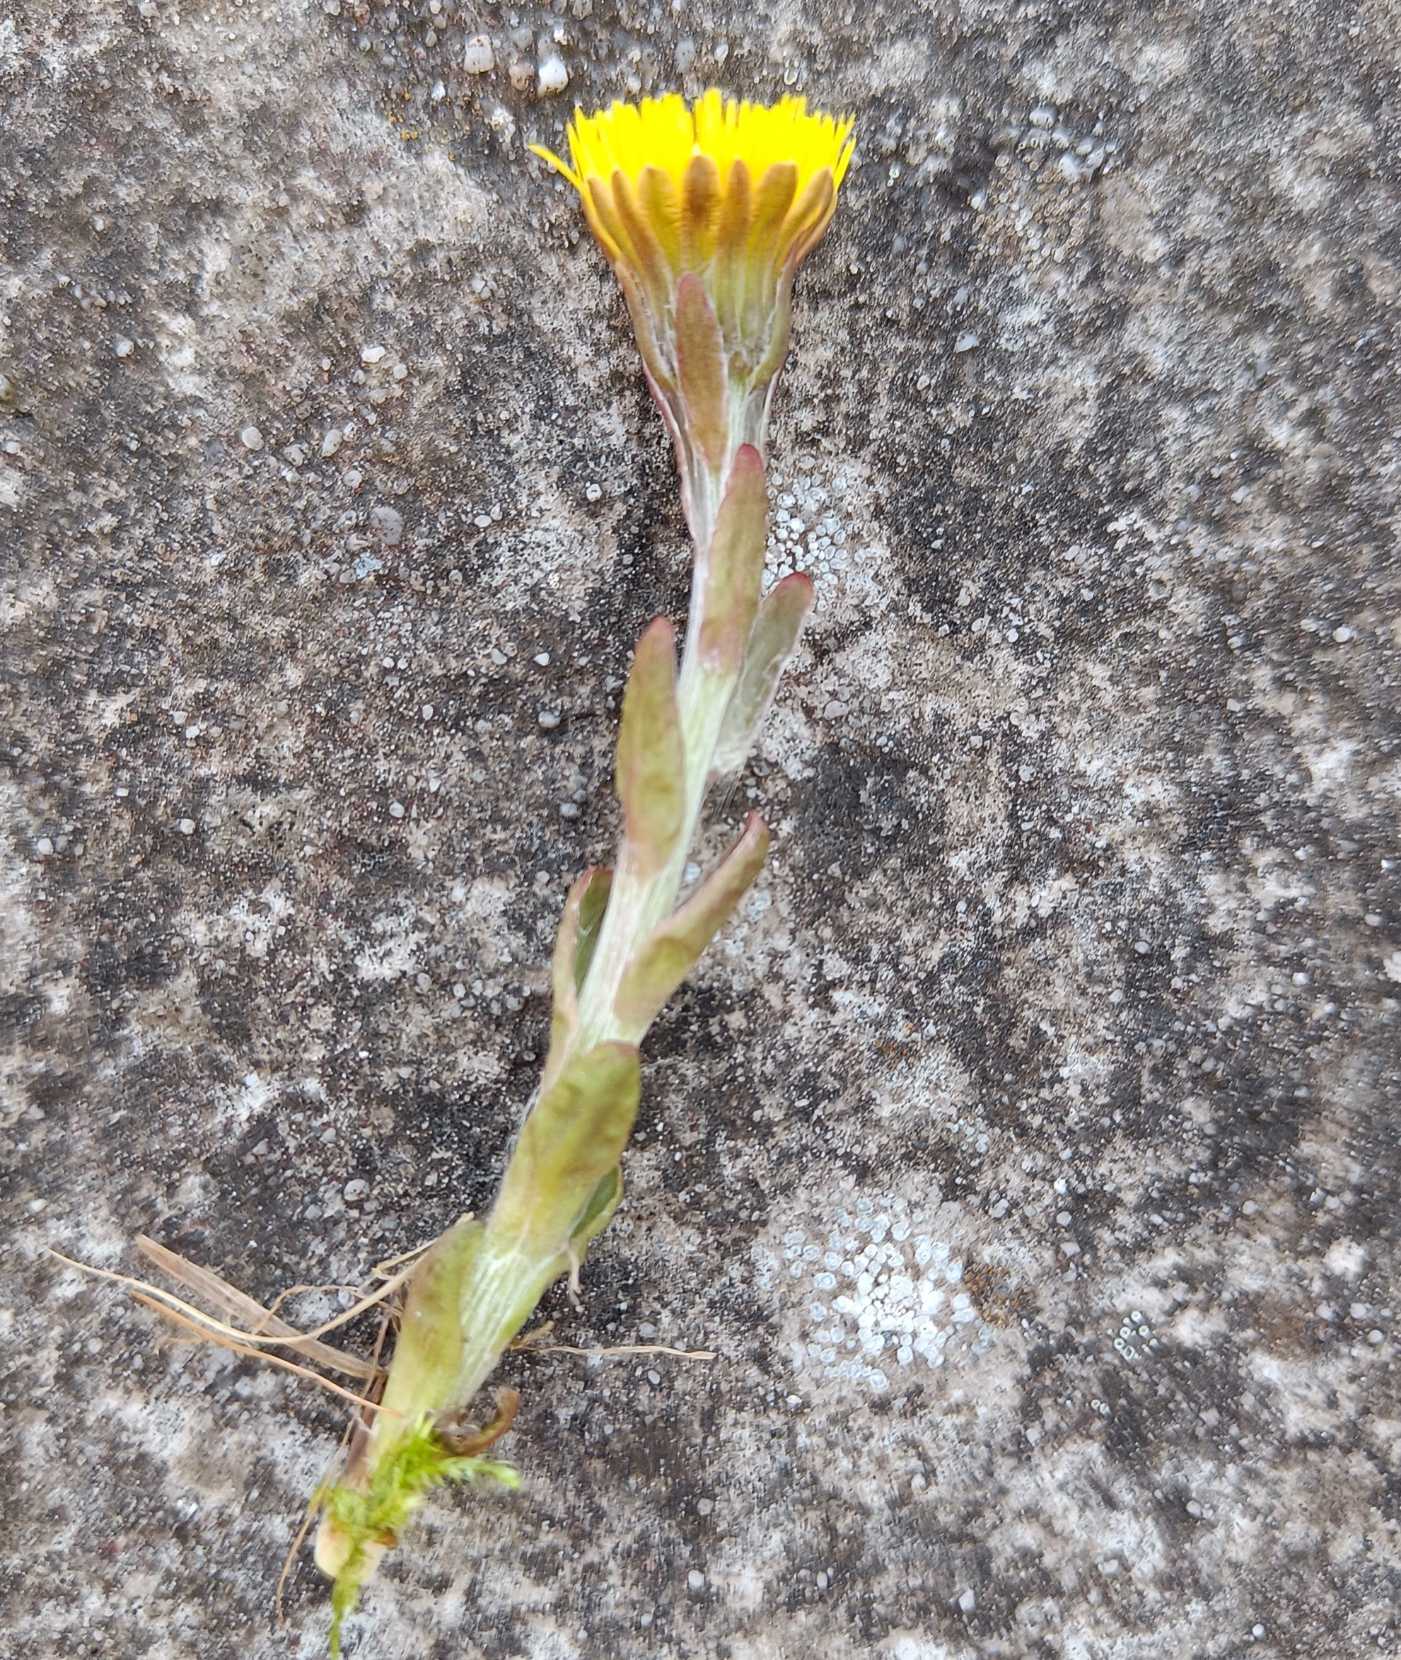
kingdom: Plantae
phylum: Tracheophyta
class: Magnoliopsida
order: Asterales
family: Asteraceae
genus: Tussilago
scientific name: Tussilago farfara
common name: Følfod
